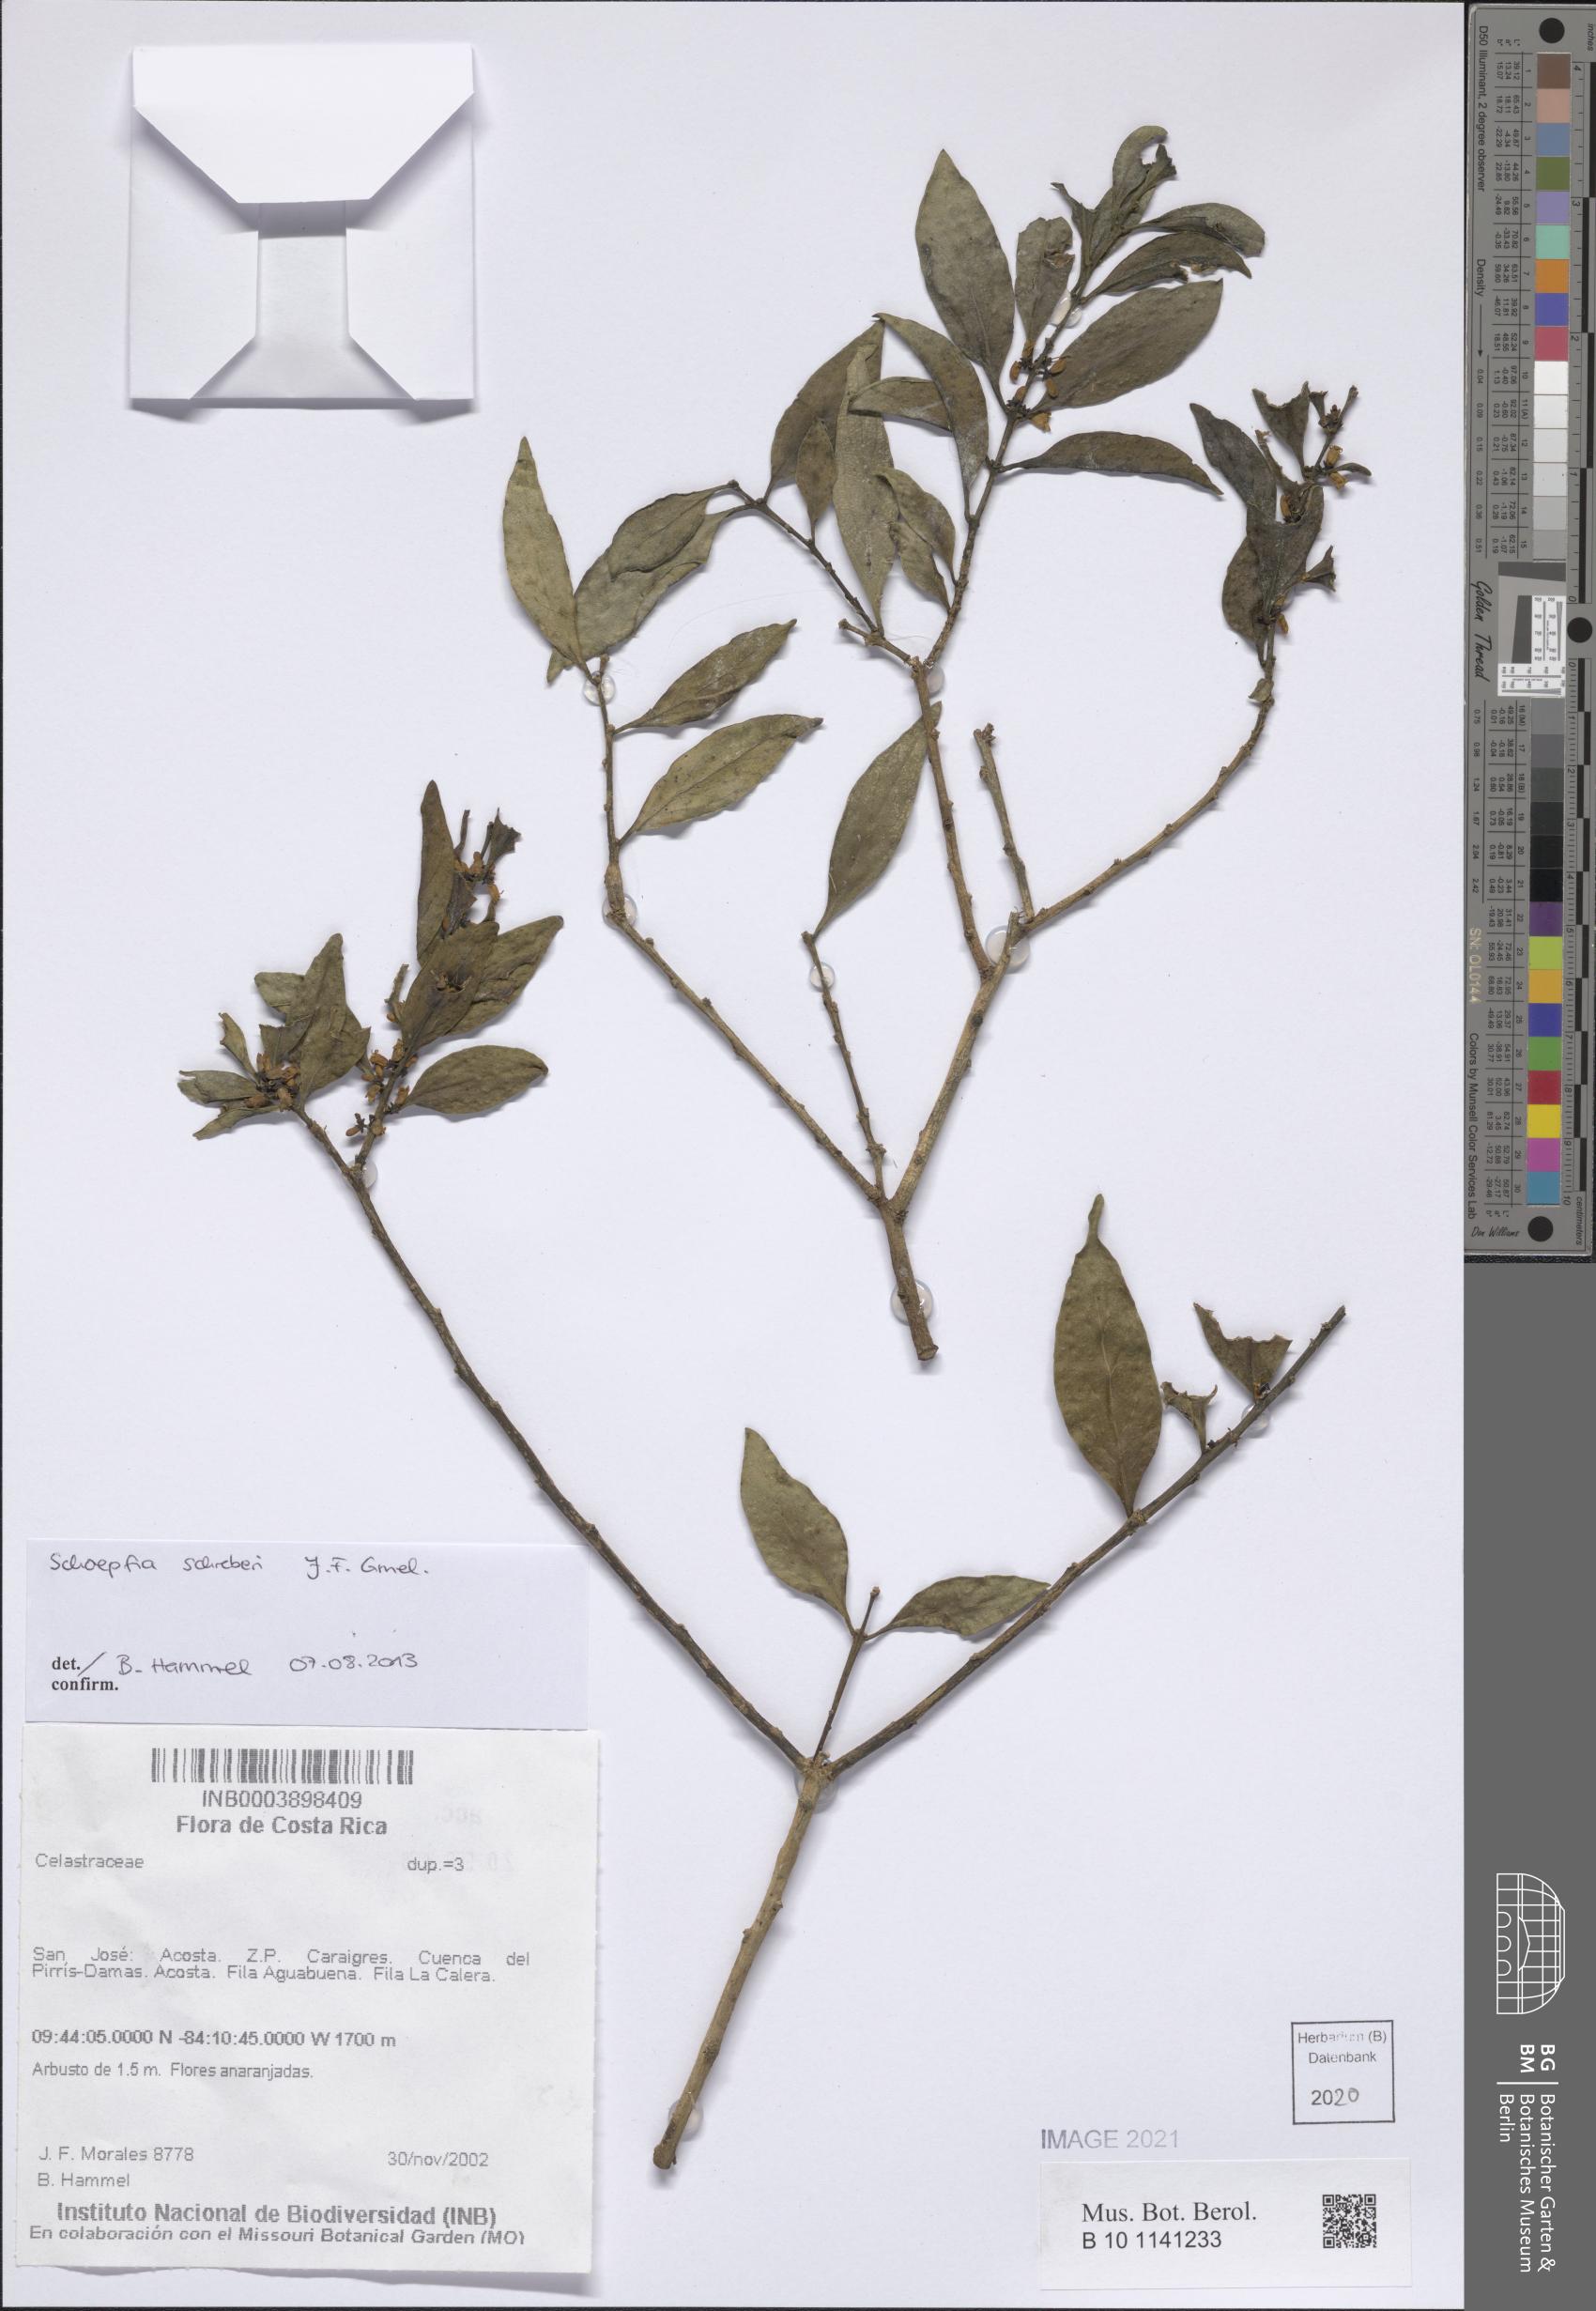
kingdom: Plantae
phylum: Tracheophyta
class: Magnoliopsida
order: Santalales
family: Schoepfiaceae
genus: Schoepfia
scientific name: Schoepfia schreberi
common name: Gulf graytwig
